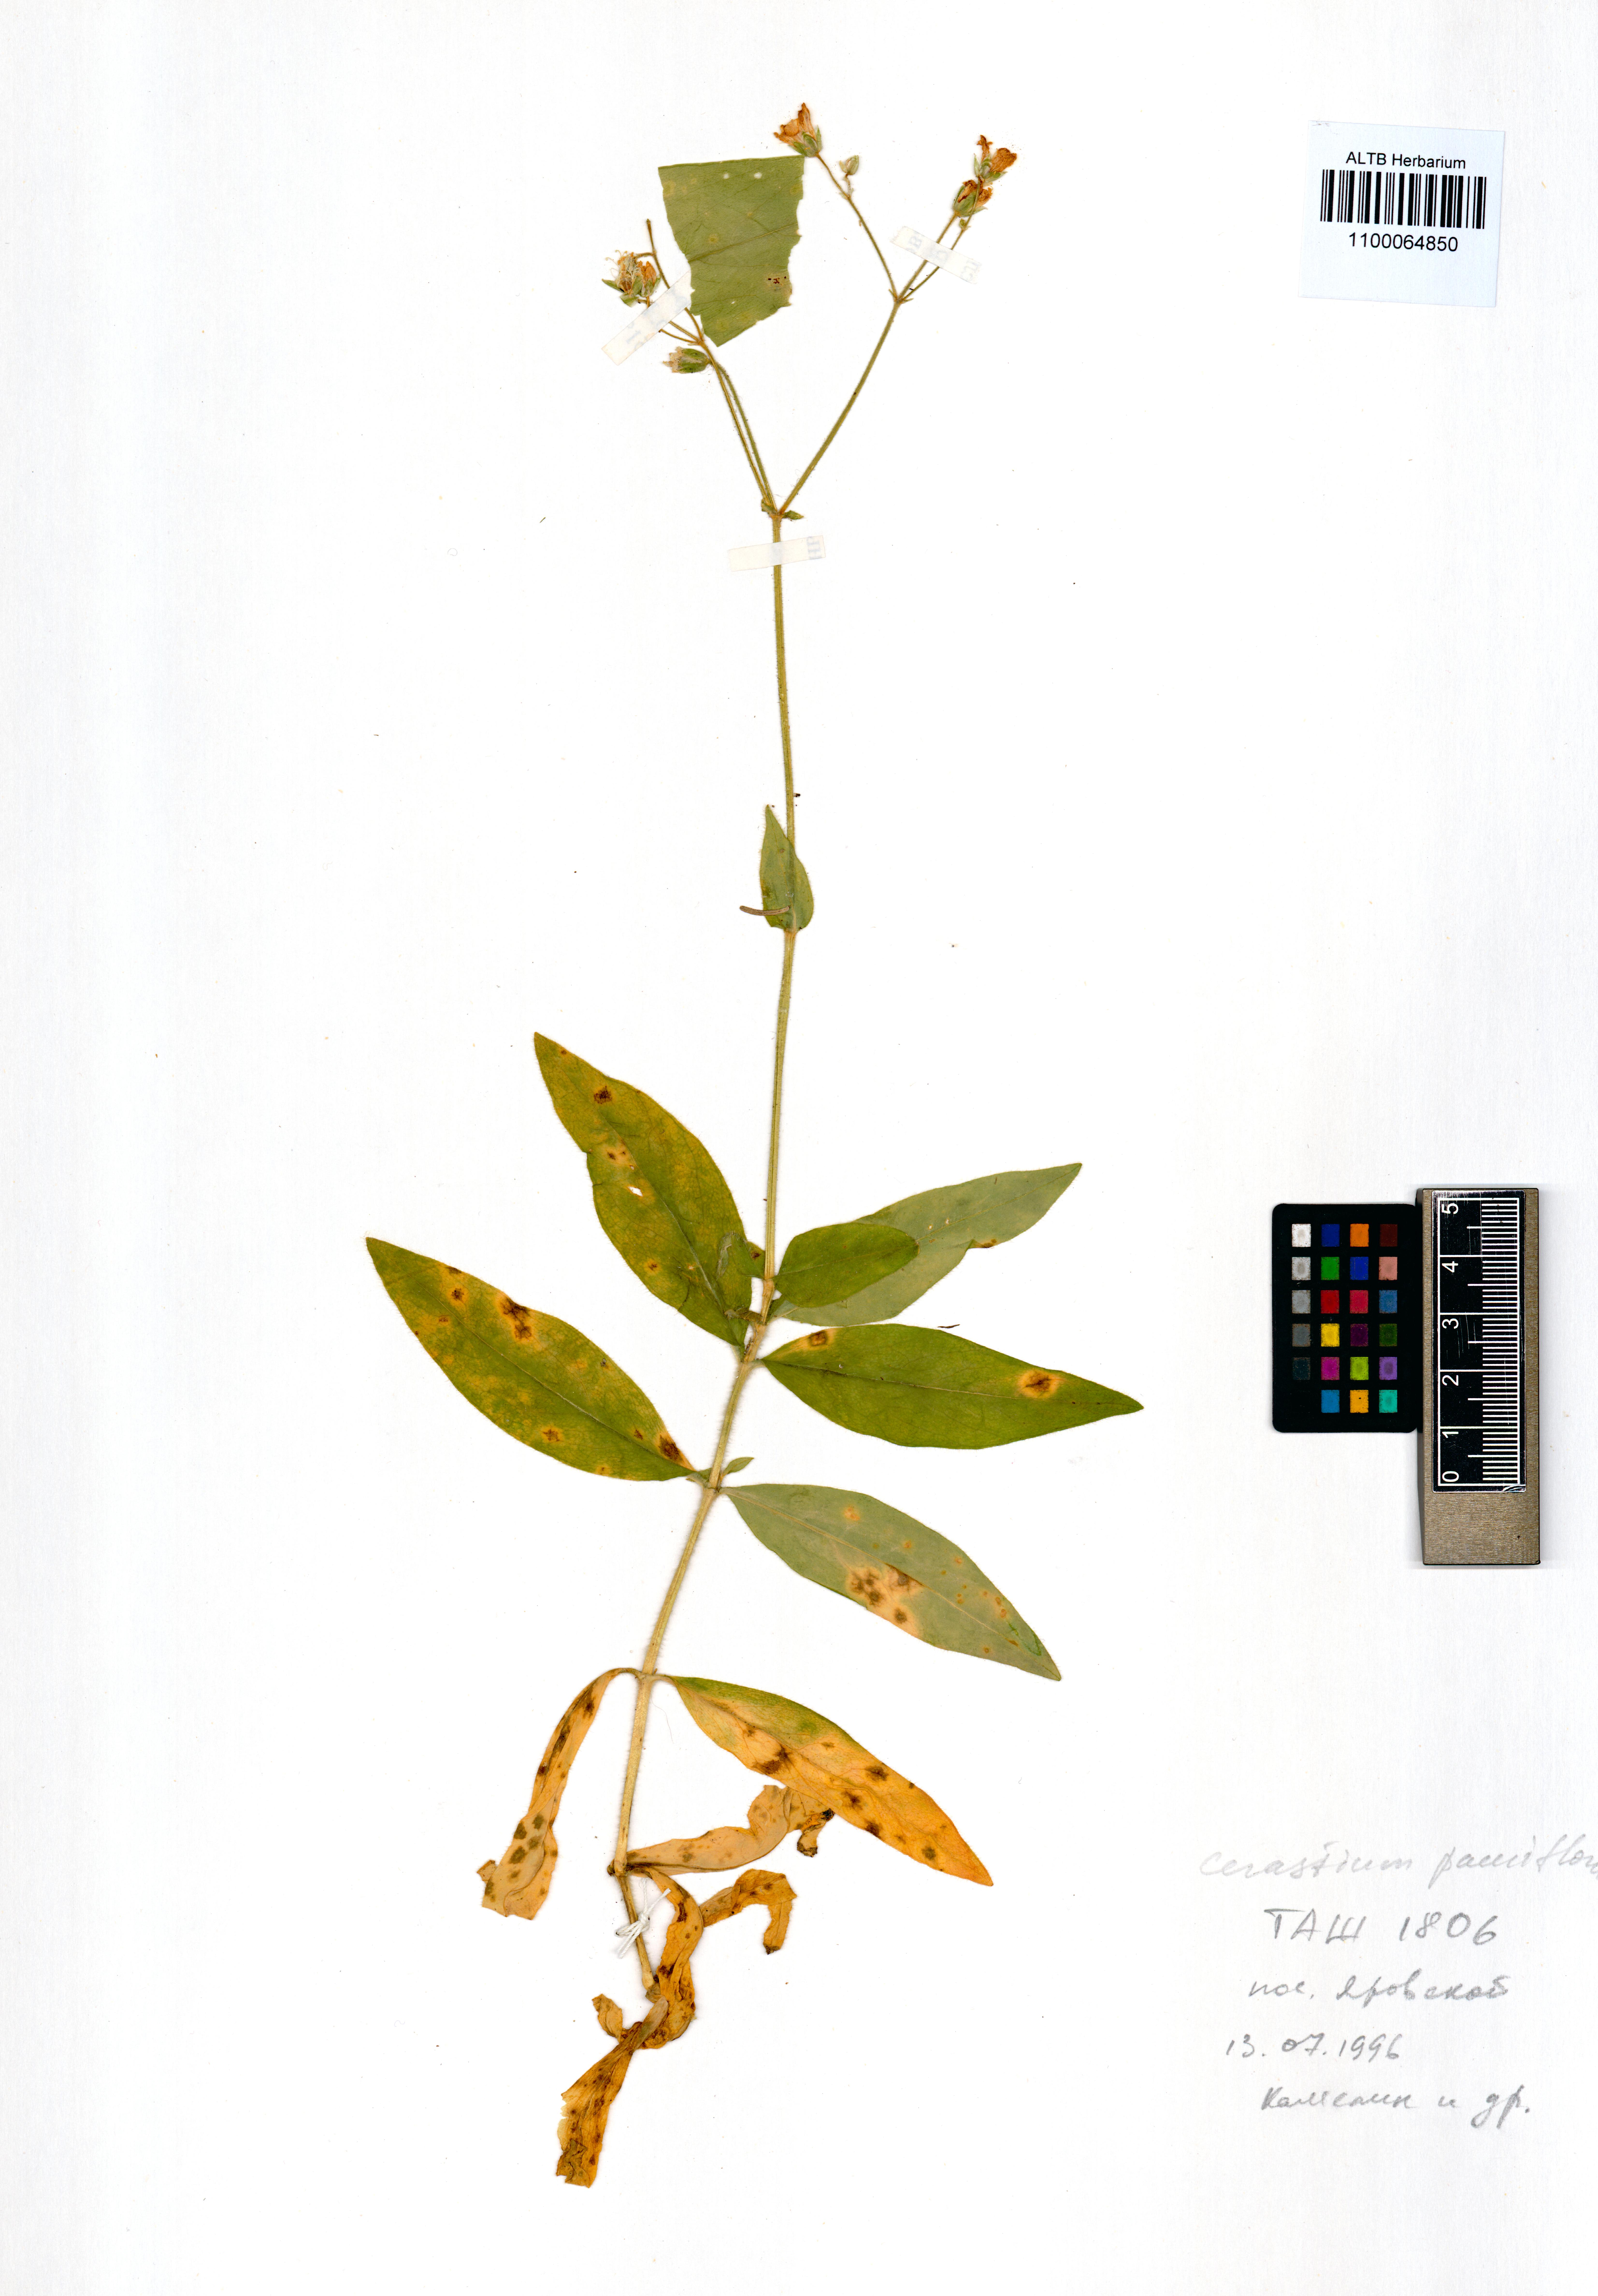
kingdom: Plantae
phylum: Tracheophyta
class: Magnoliopsida
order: Caryophyllales
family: Caryophyllaceae
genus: Cerastium
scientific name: Cerastium pauciflorum
